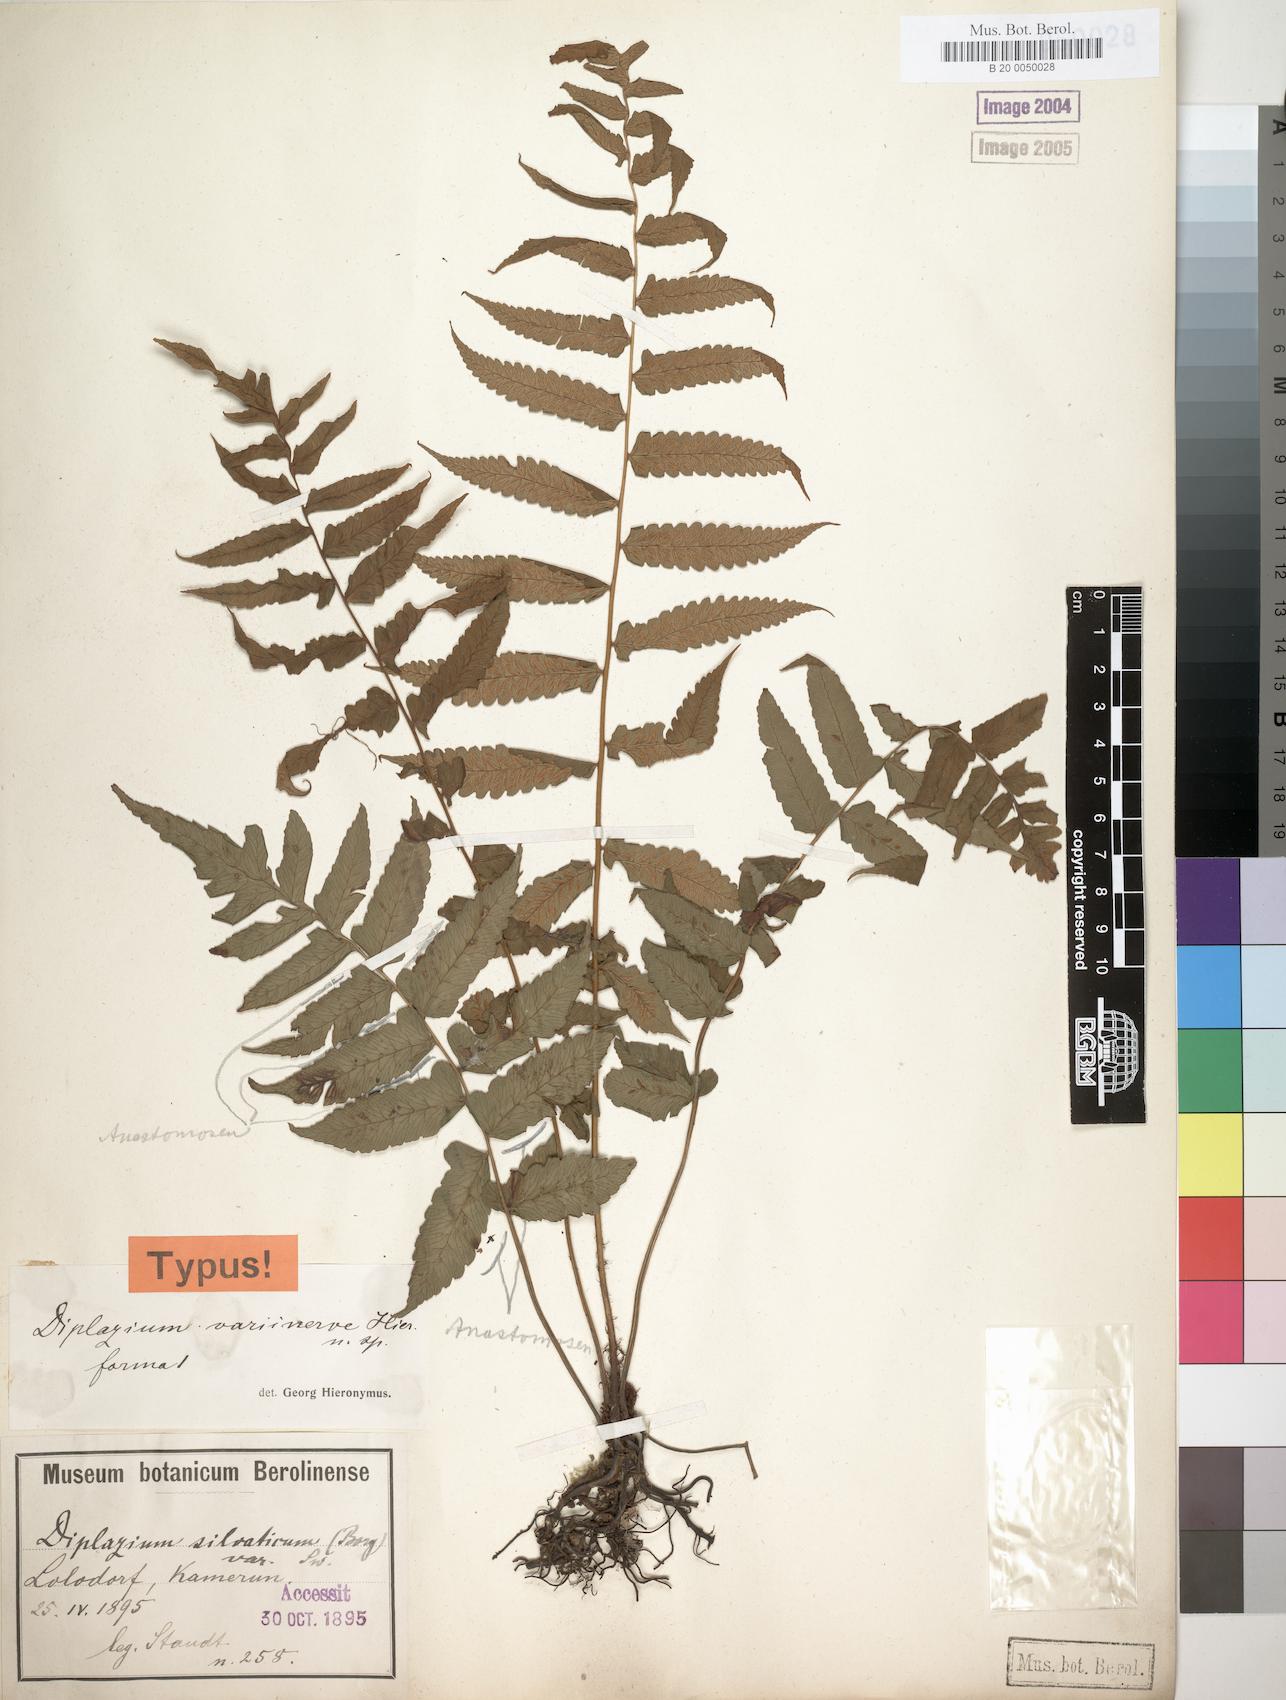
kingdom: Plantae
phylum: Tracheophyta
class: Polypodiopsida
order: Polypodiales
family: Athyriaceae
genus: Diplazium
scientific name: Diplazium welwitschii
